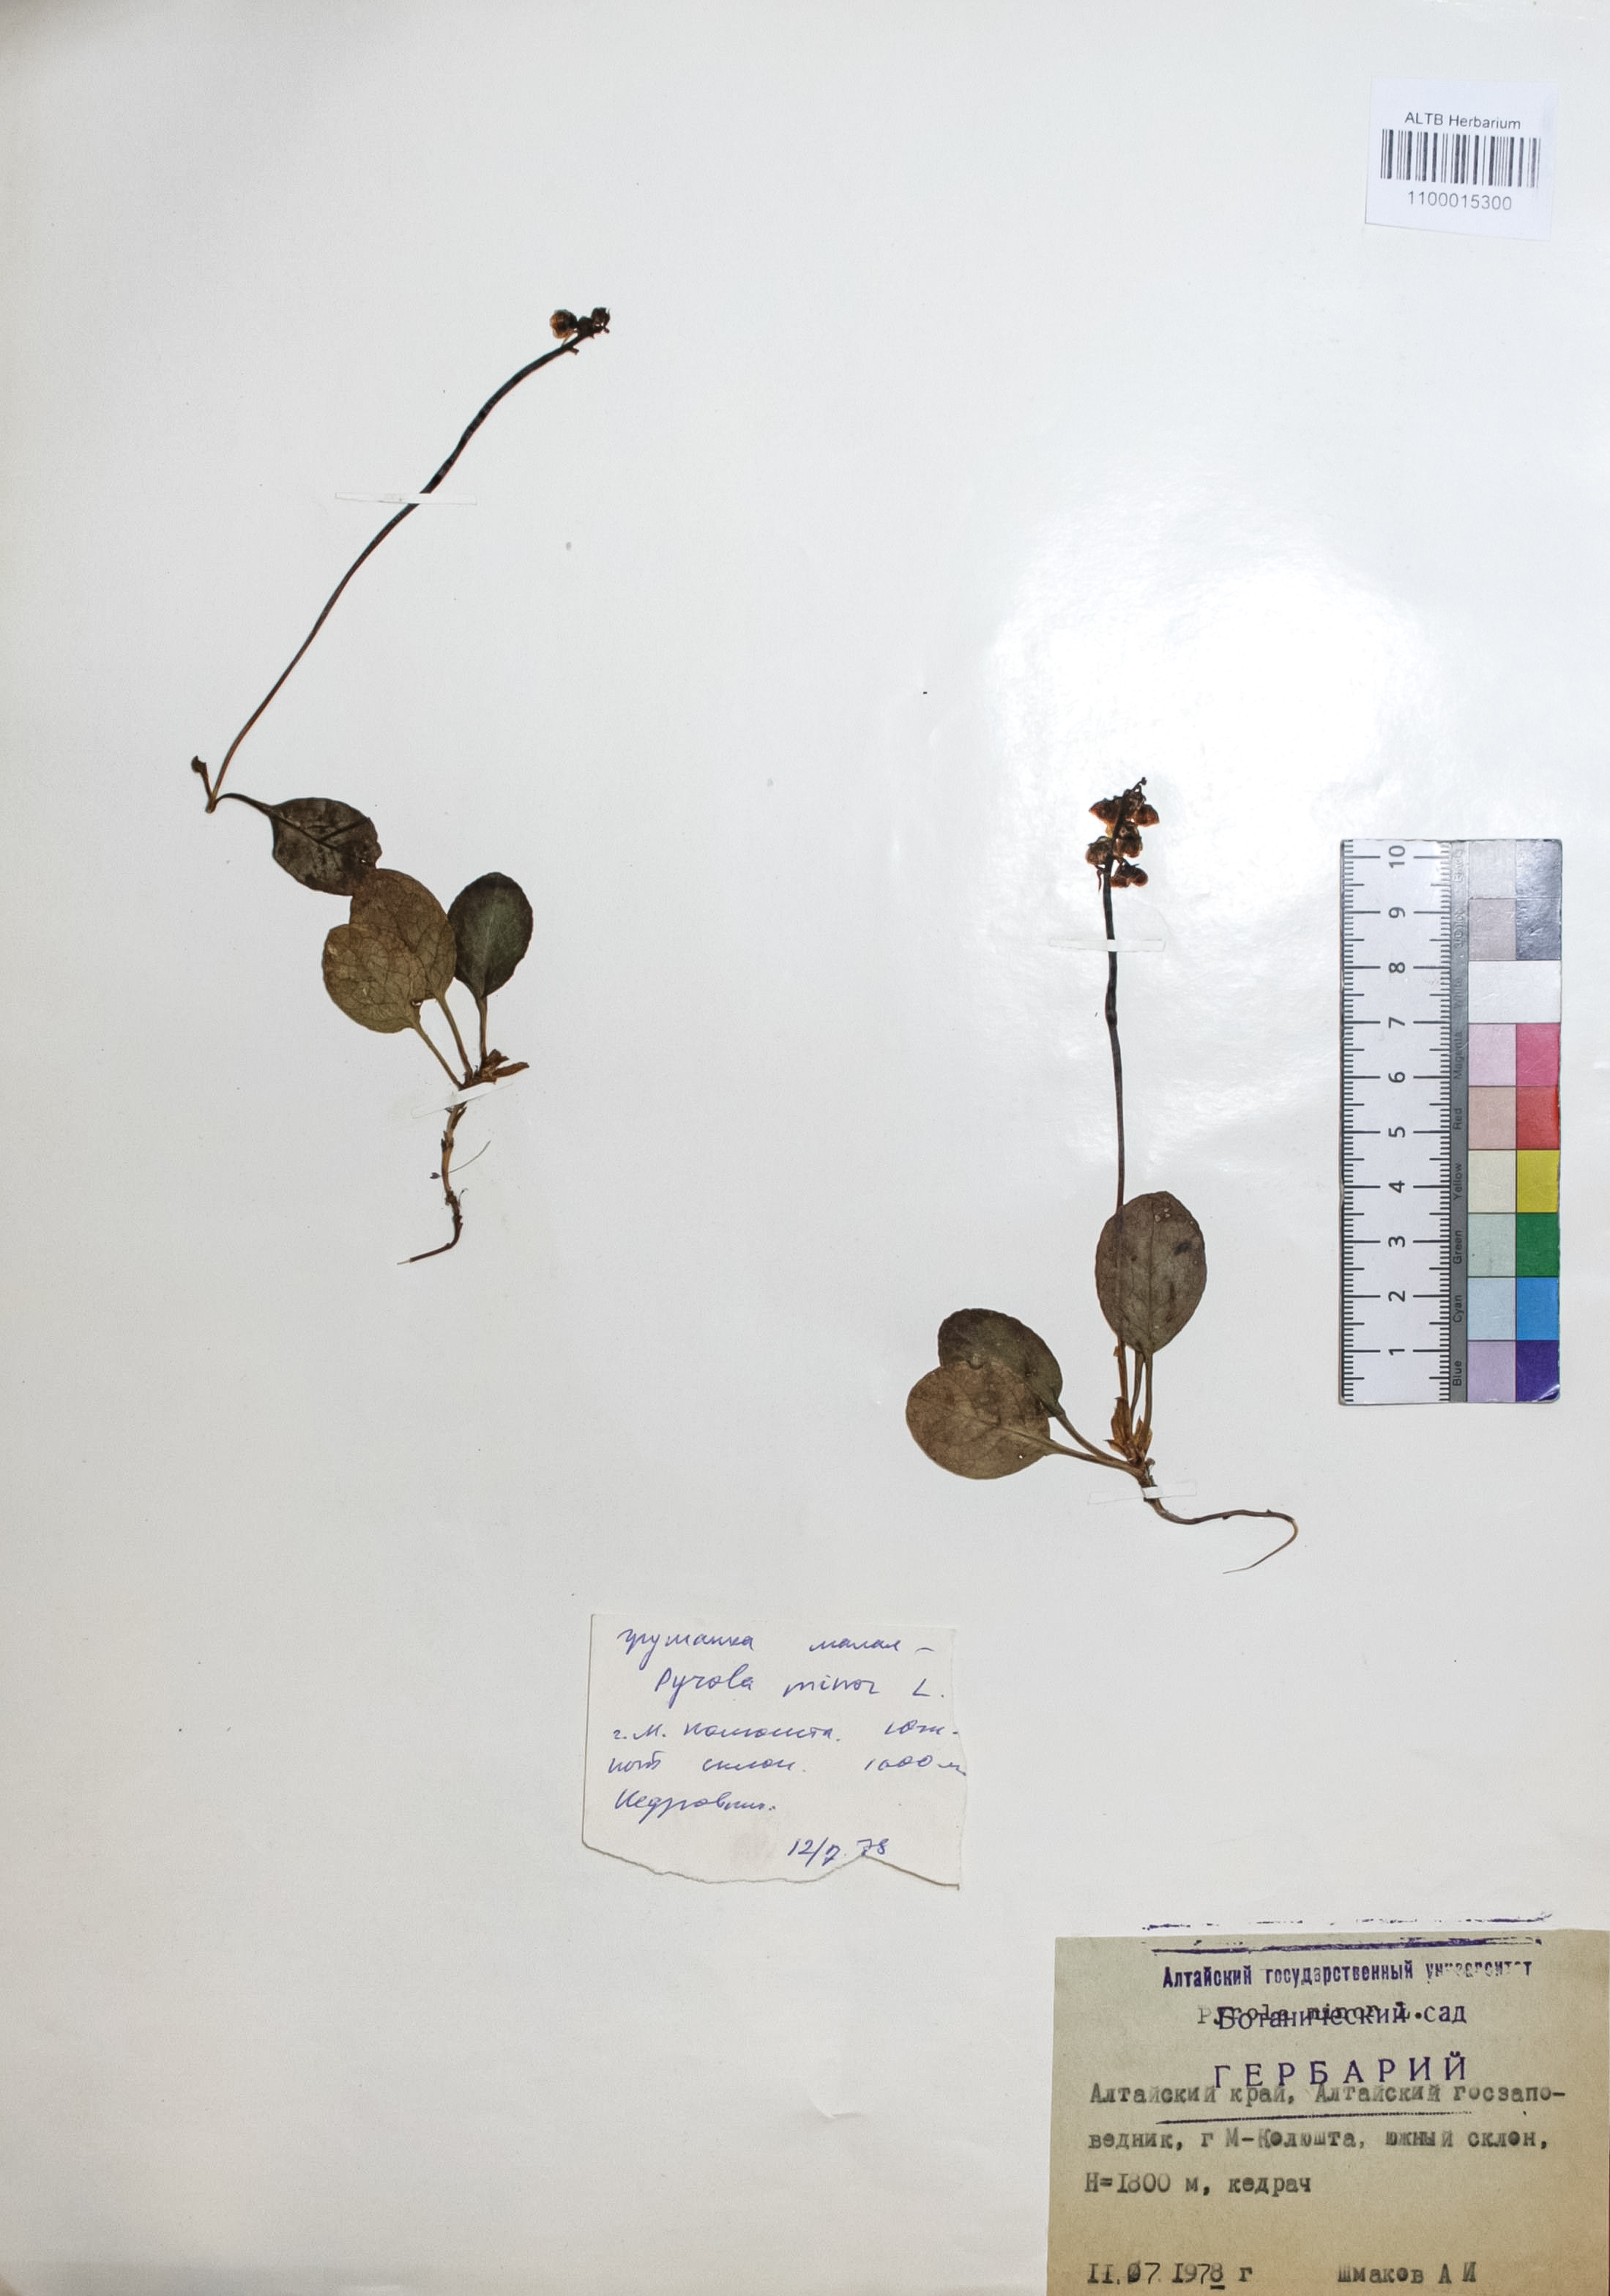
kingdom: Plantae
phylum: Tracheophyta
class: Magnoliopsida
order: Ericales
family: Ericaceae
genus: Pyrola
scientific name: Pyrola minor
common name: Common wintergreen
